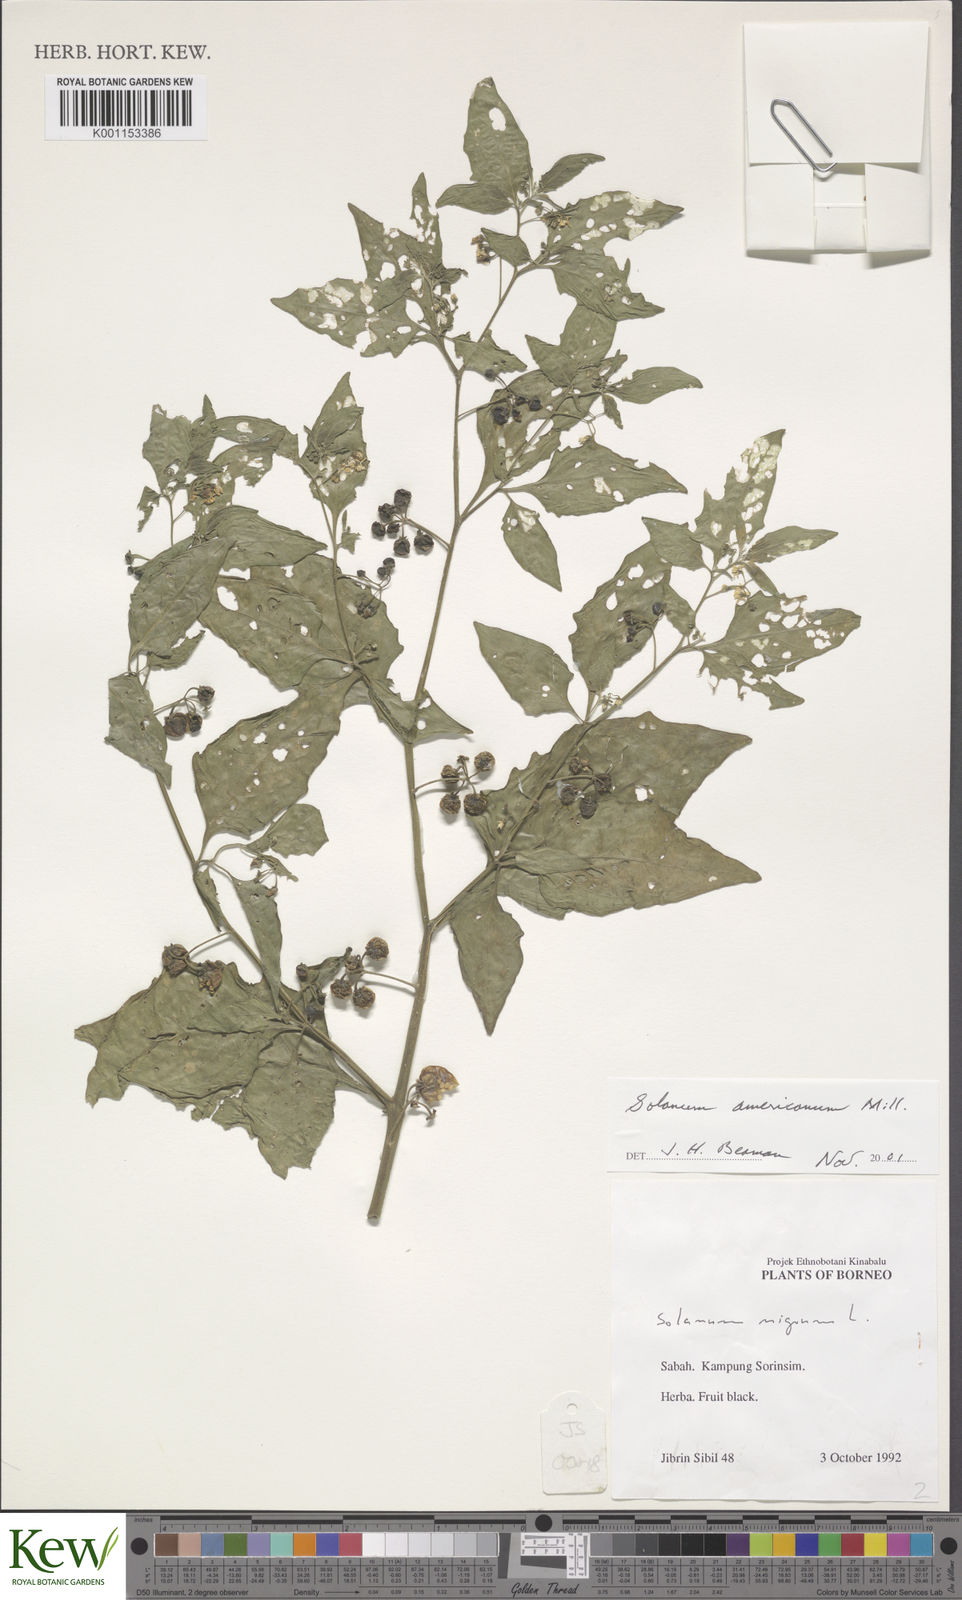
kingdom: Plantae
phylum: Tracheophyta
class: Magnoliopsida
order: Solanales
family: Solanaceae
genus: Solanum
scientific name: Solanum
